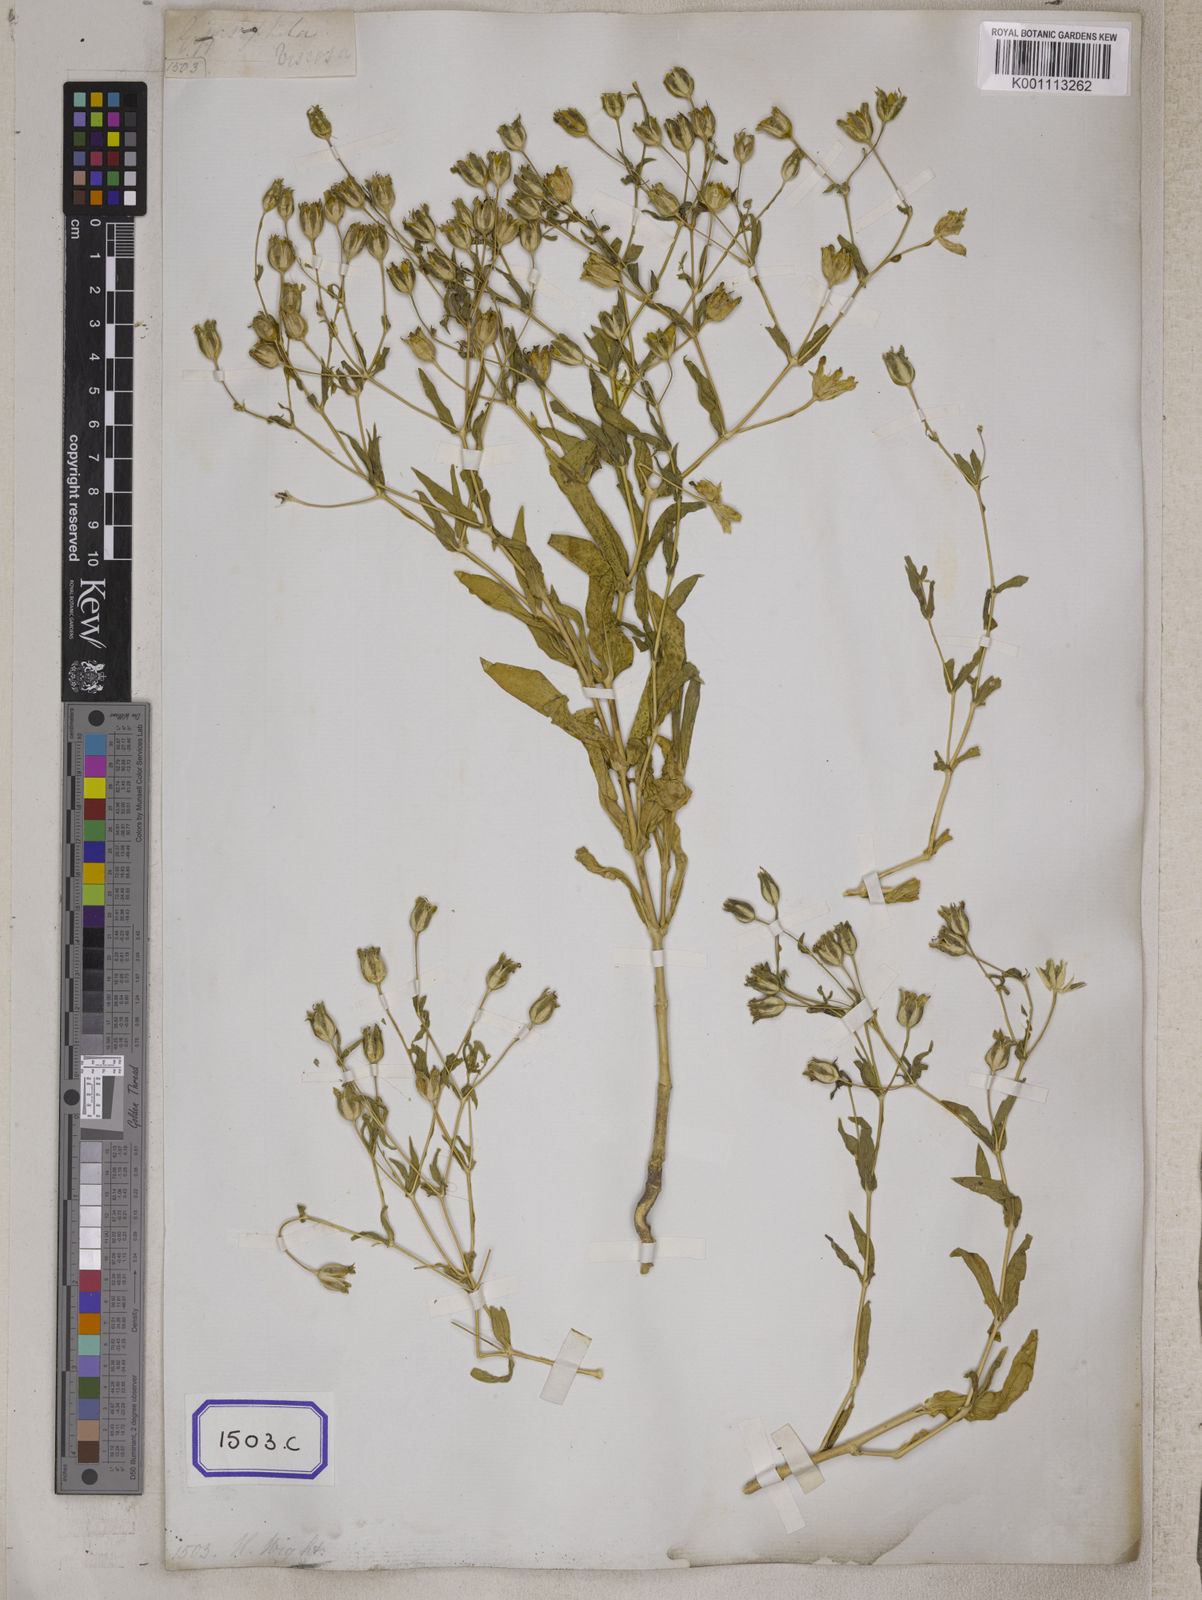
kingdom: Plantae
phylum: Tracheophyta
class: Magnoliopsida
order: Caryophyllales
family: Caryophyllaceae
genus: Gypsophila
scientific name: Gypsophila vaccaria
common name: Cow soapwort
